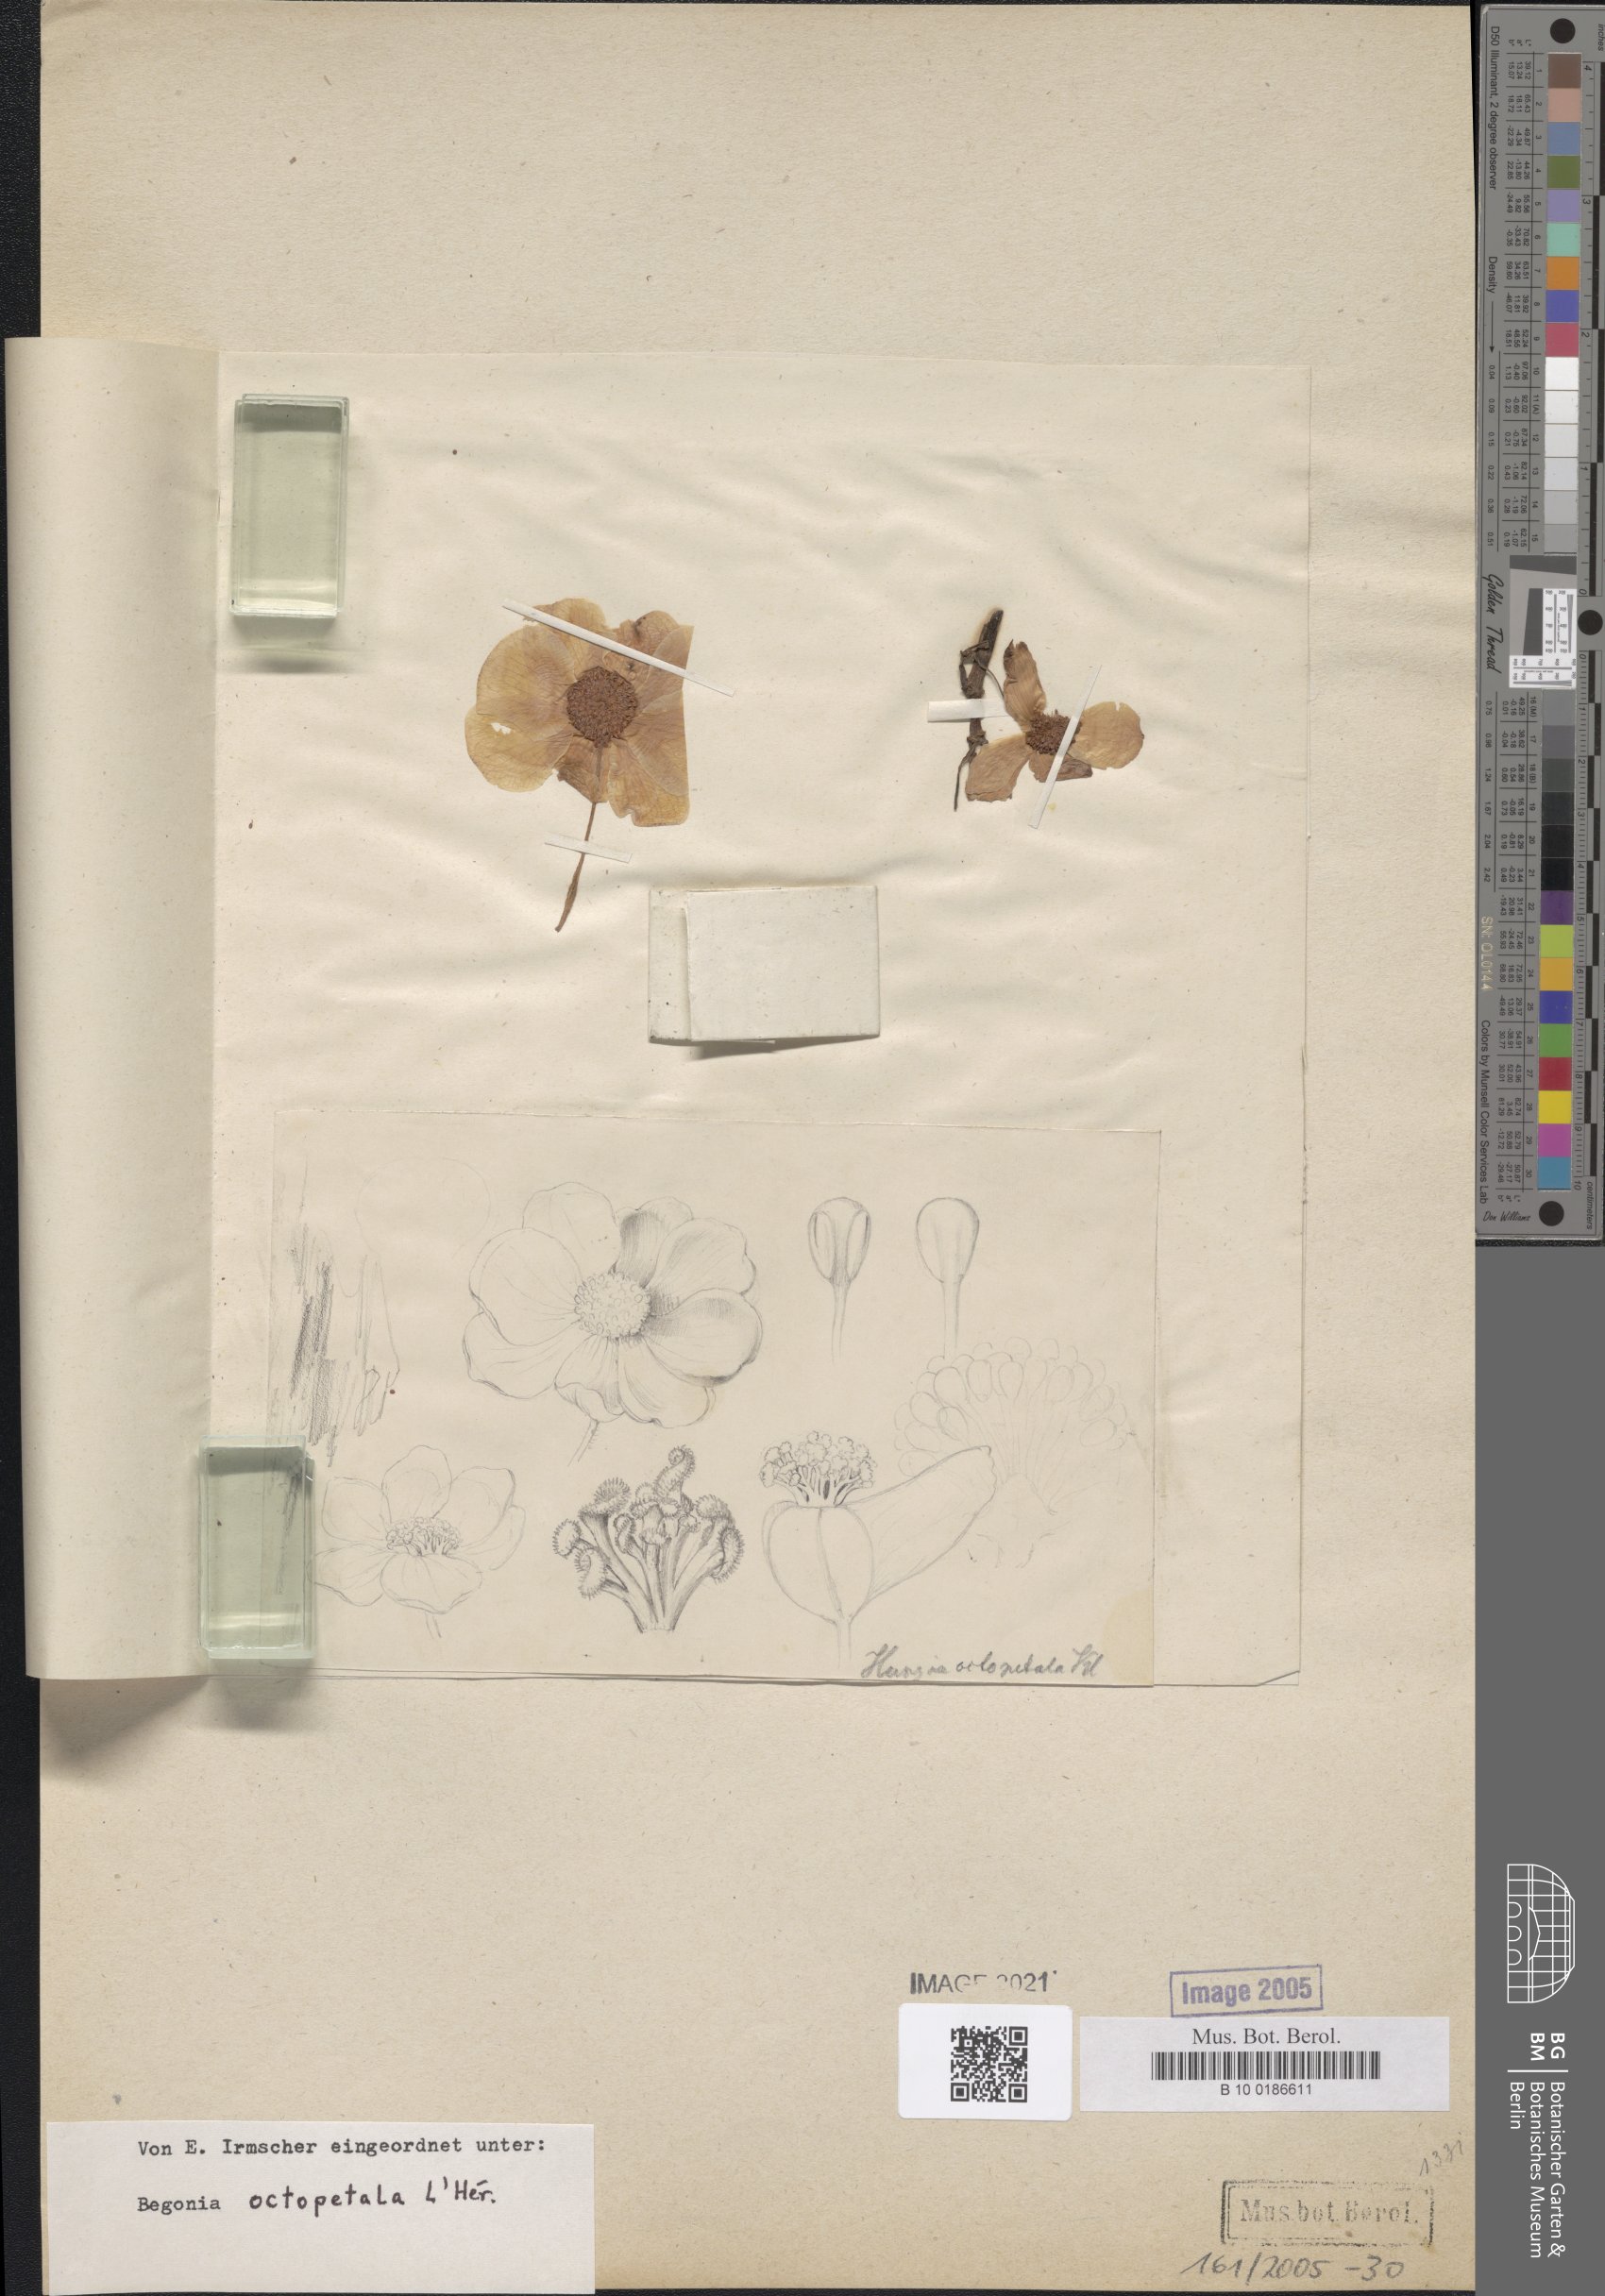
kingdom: Plantae
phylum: Tracheophyta
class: Magnoliopsida
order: Cucurbitales
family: Begoniaceae
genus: Begonia
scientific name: Begonia octopetala
